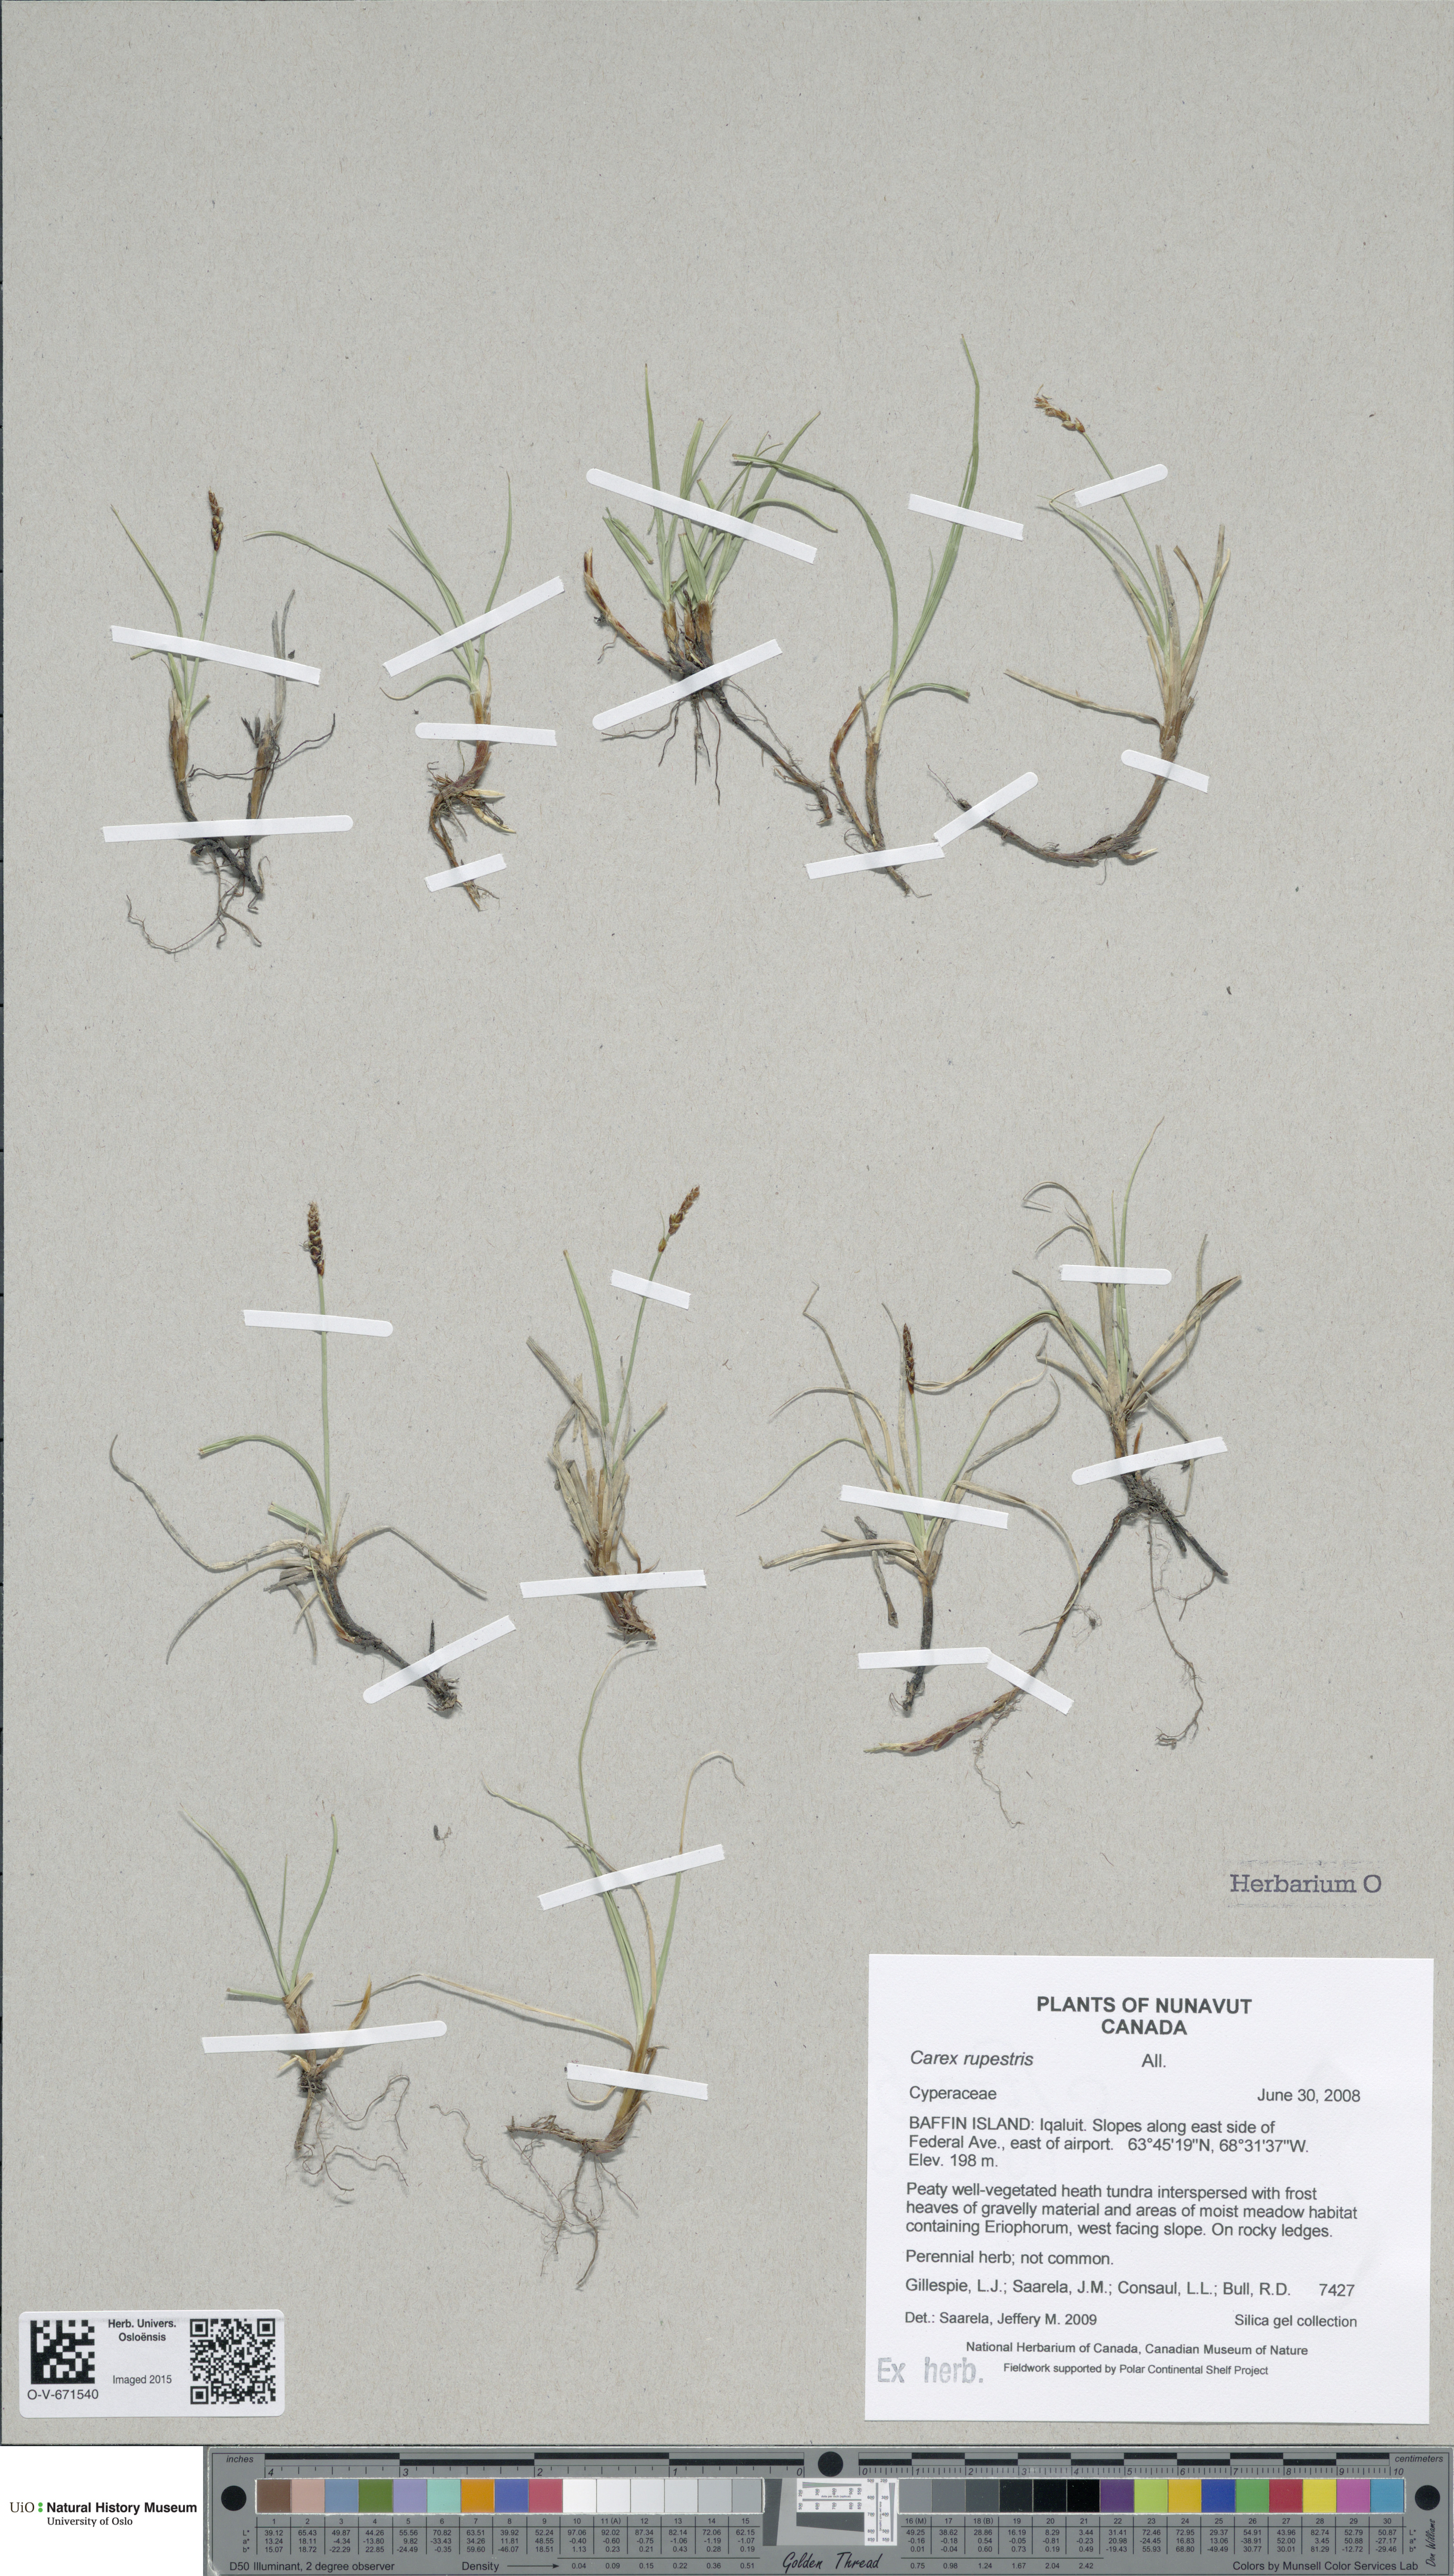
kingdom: Plantae
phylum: Tracheophyta
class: Liliopsida
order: Poales
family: Cyperaceae
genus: Carex
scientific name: Carex rupestris
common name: Rock sedge
